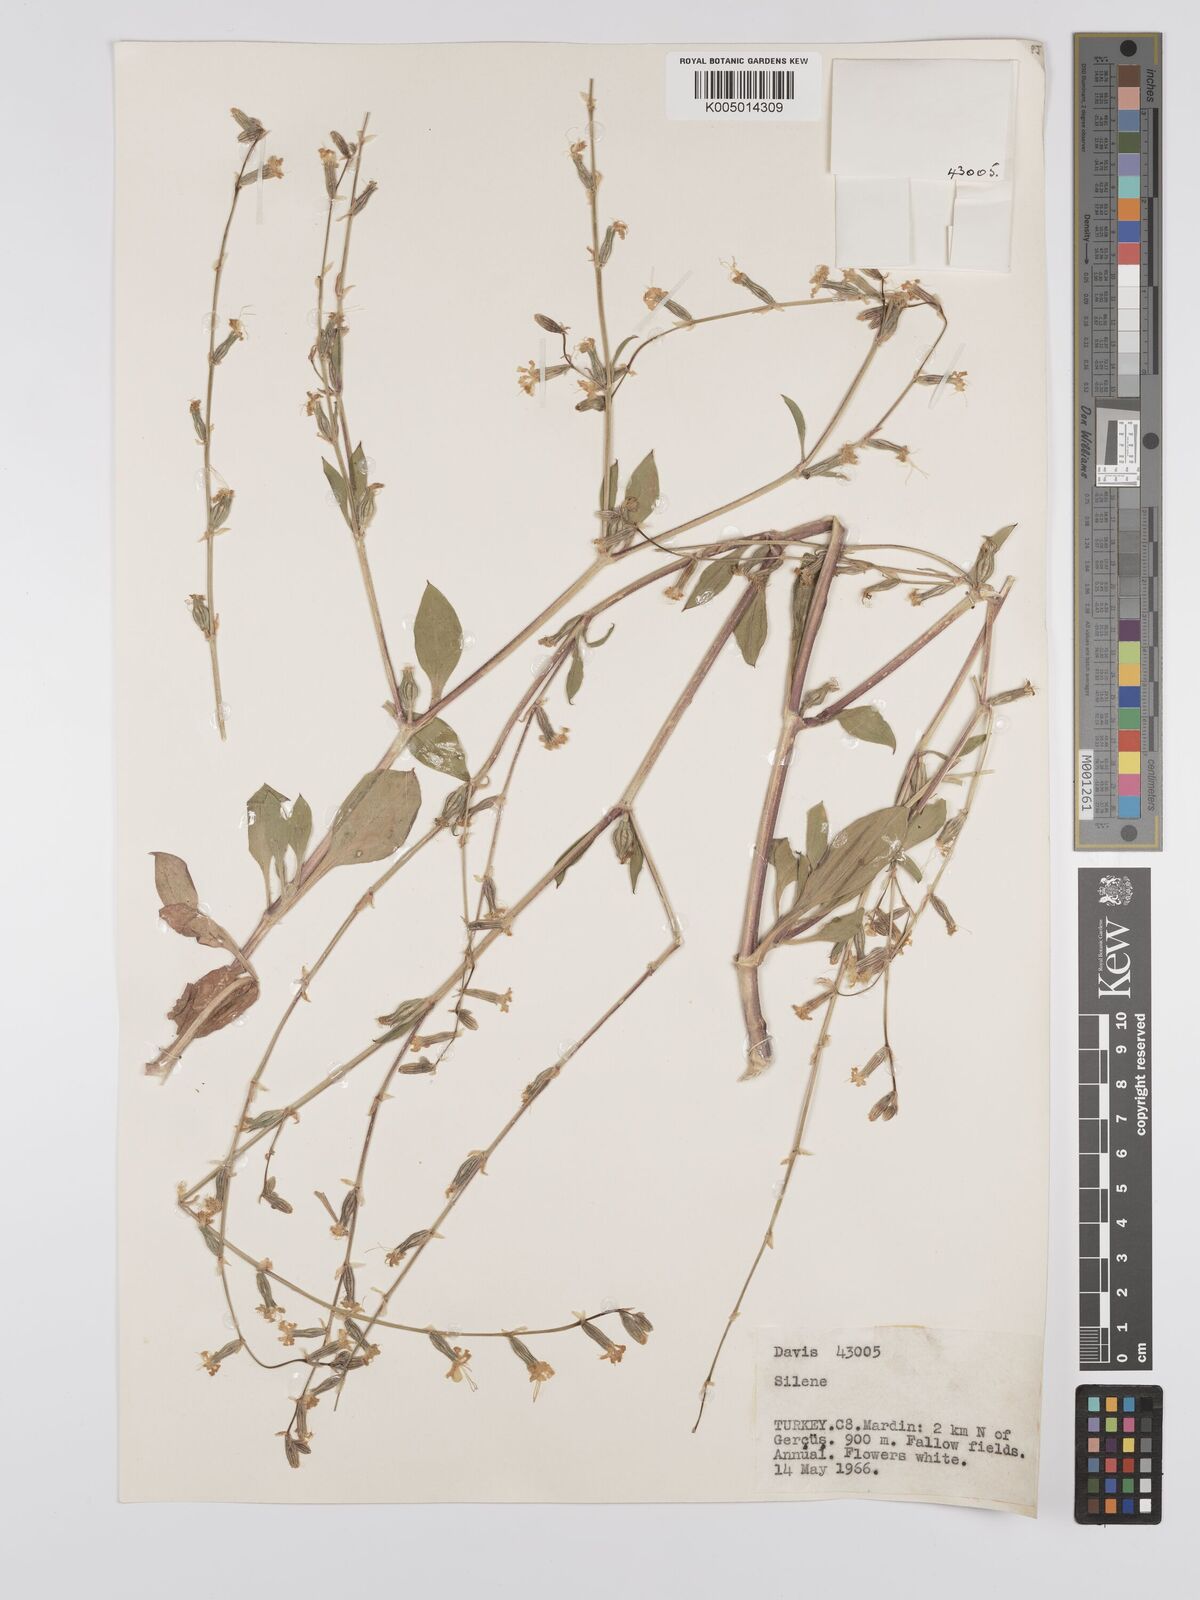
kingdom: Plantae
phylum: Tracheophyta
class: Magnoliopsida
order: Caryophyllales
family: Caryophyllaceae
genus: Silene
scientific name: Silene
